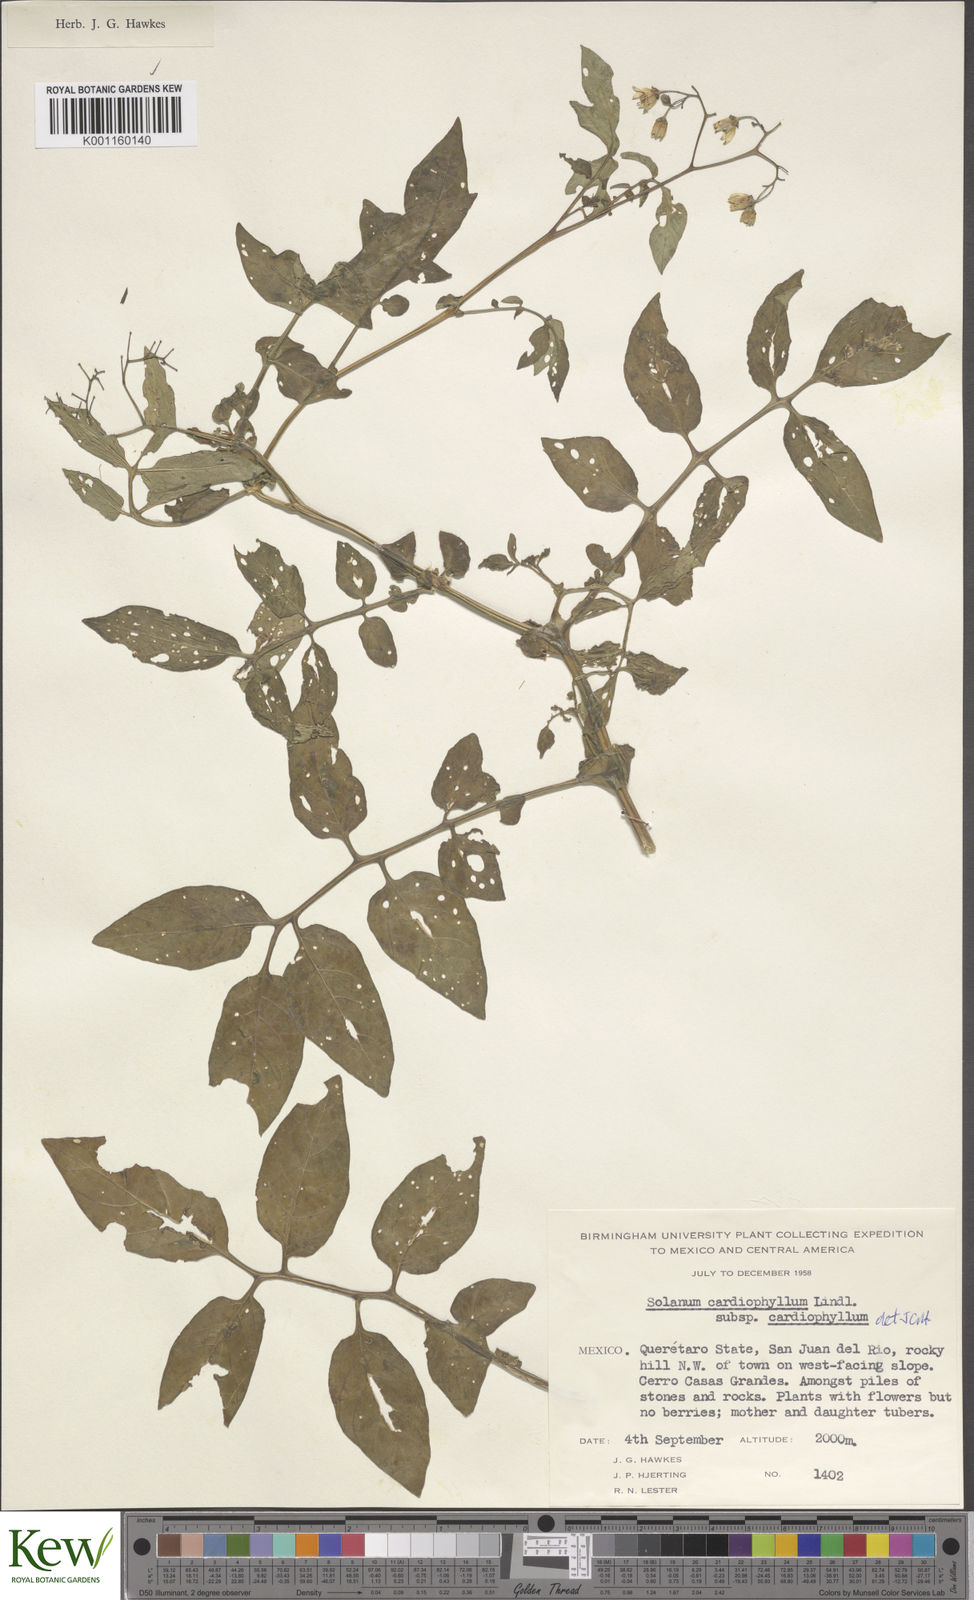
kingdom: Plantae
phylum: Tracheophyta
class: Magnoliopsida
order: Solanales
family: Solanaceae
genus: Solanum
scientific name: Solanum cardiophyllum
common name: Heartleaf horsenettle
